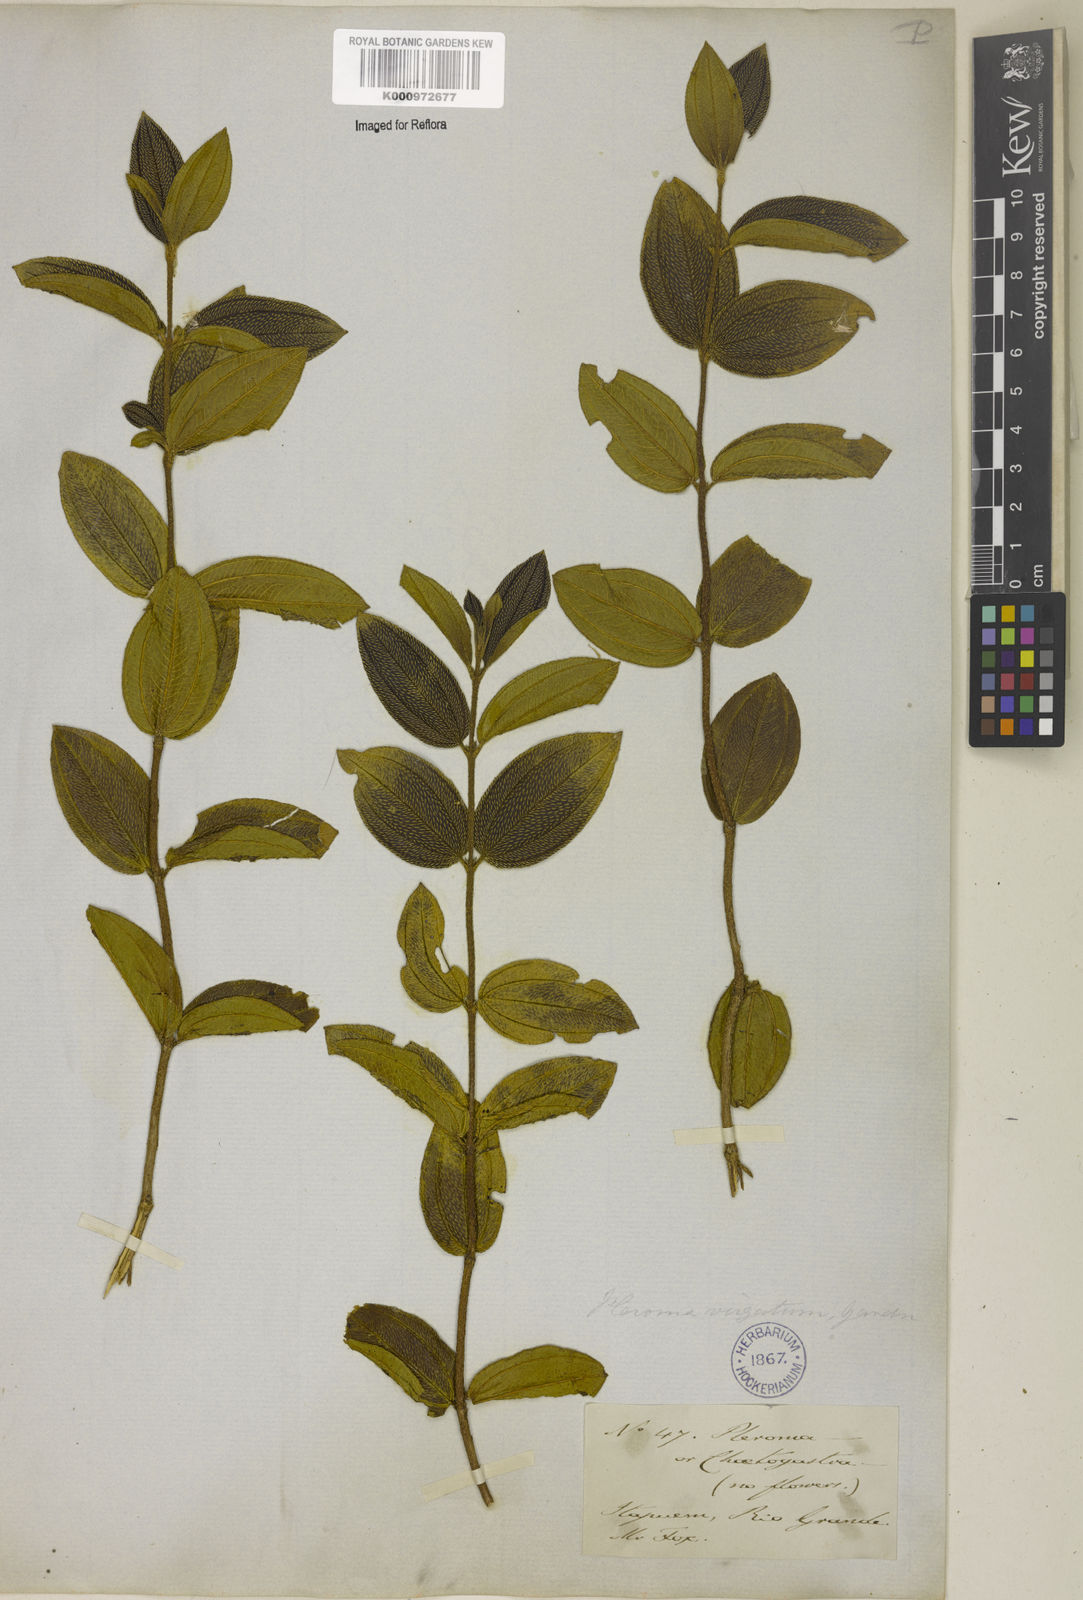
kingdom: Plantae
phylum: Tracheophyta
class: Magnoliopsida
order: Myrtales
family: Melastomataceae
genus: Pleroma
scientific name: Pleroma virgatum
